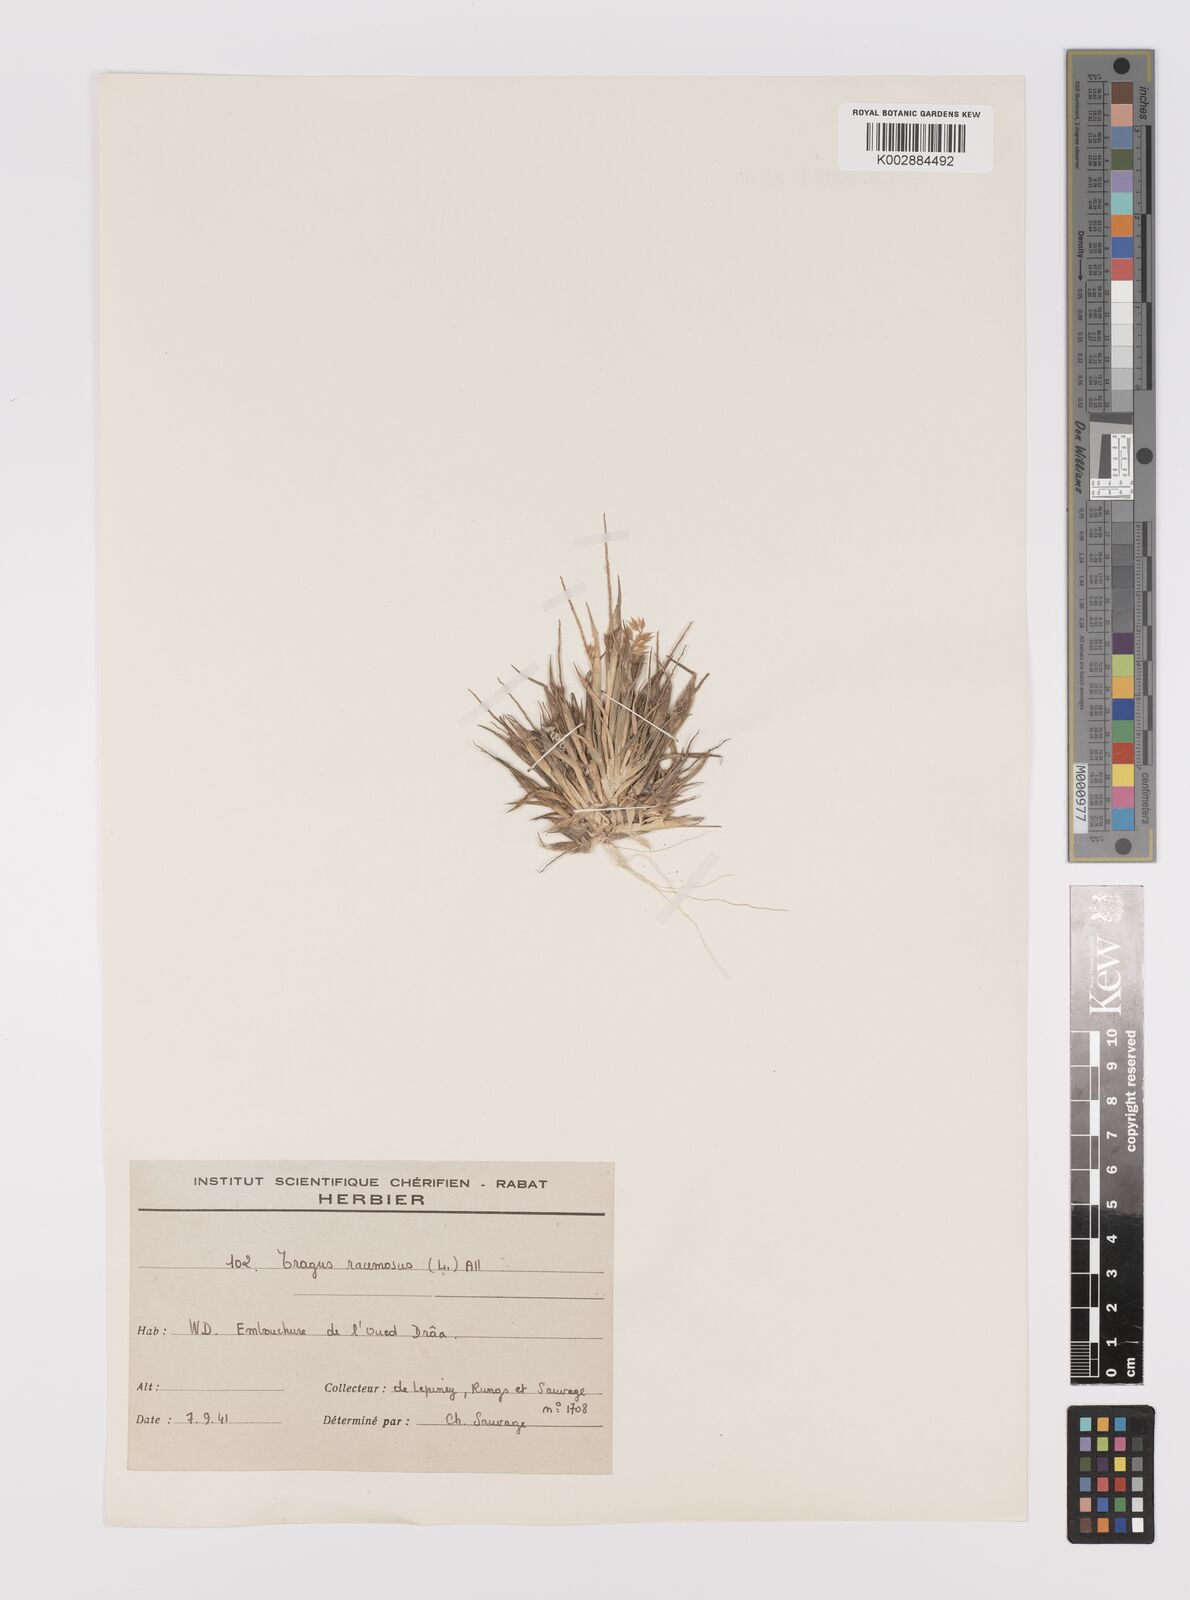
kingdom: Plantae
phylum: Tracheophyta
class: Liliopsida
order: Poales
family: Poaceae
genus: Tragus
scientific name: Tragus racemosus
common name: European bur-grass
